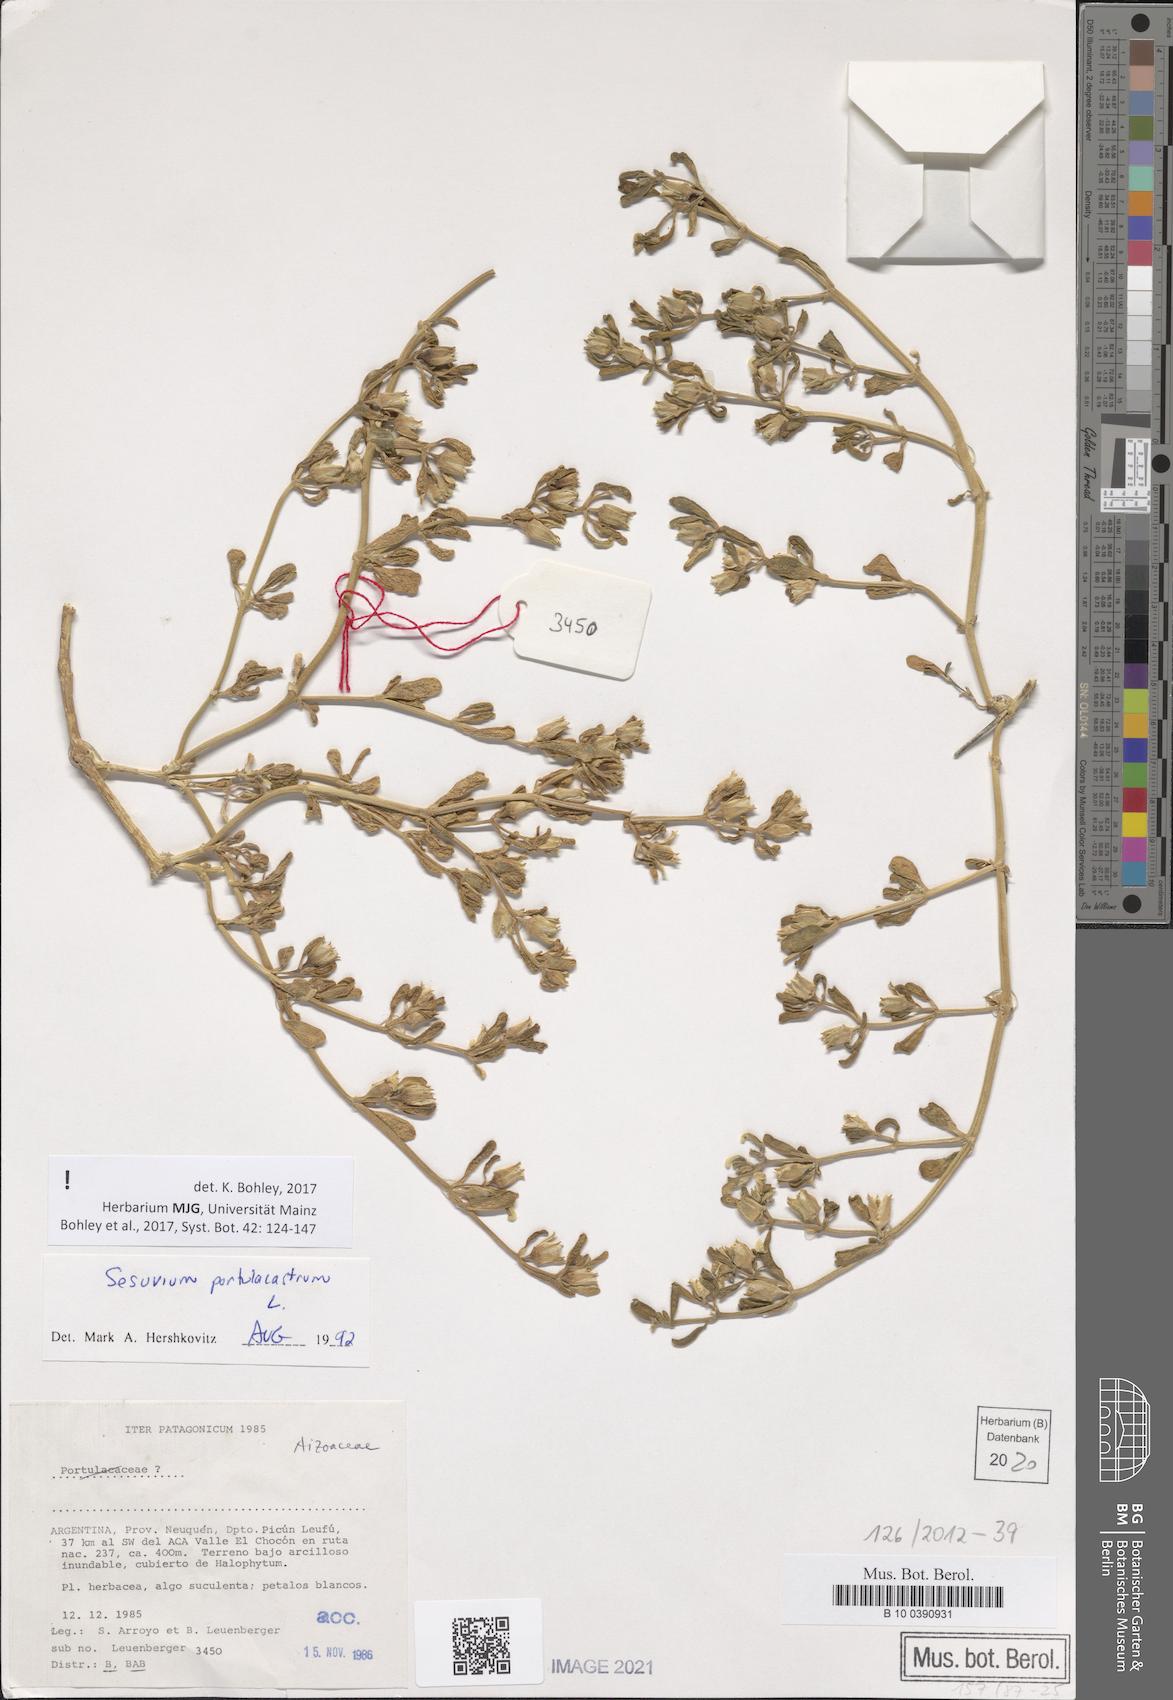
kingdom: Plantae
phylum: Tracheophyta
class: Magnoliopsida
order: Caryophyllales
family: Aizoaceae
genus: Sesuvium
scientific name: Sesuvium portulacastrum
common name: Sea-purslane
